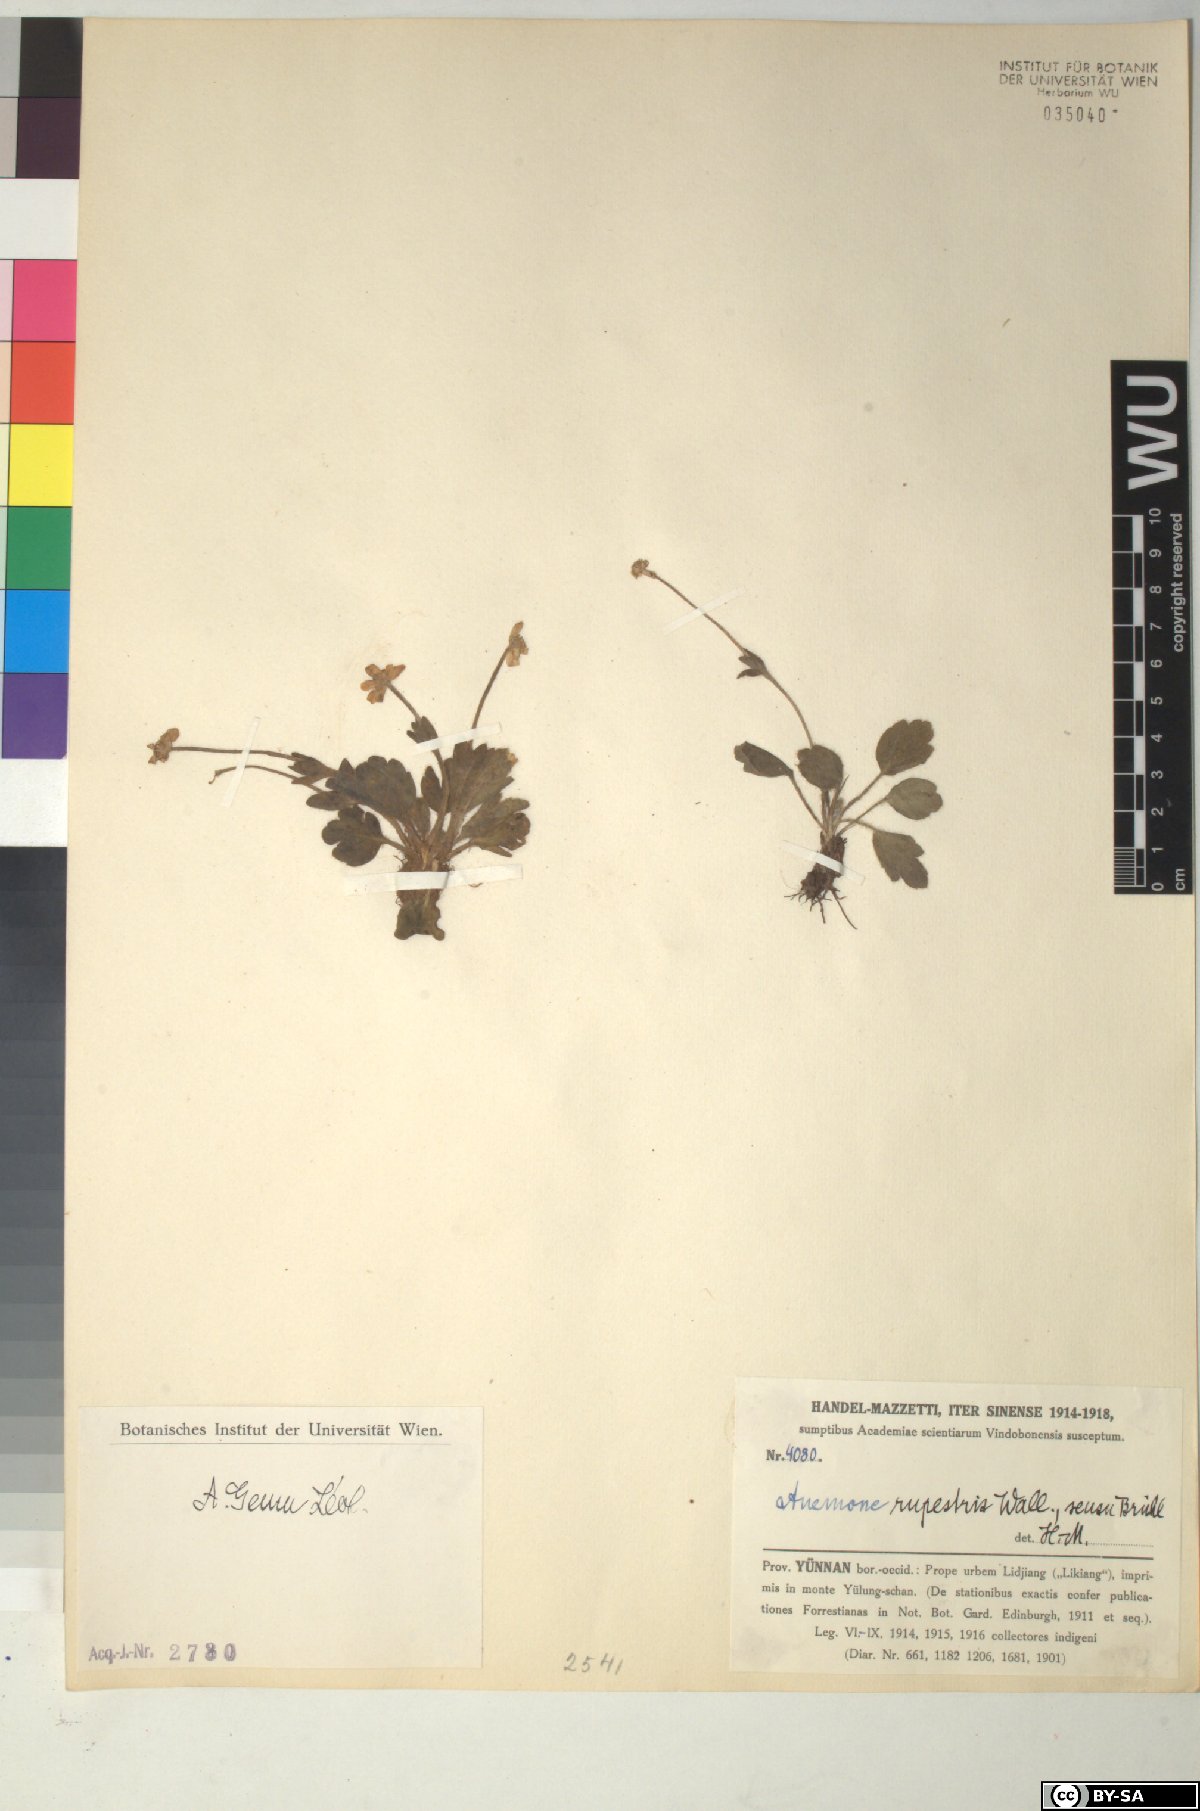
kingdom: Plantae
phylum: Tracheophyta
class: Magnoliopsida
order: Ranunculales
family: Ranunculaceae
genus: Anemonastrum
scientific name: Anemonastrum geum
